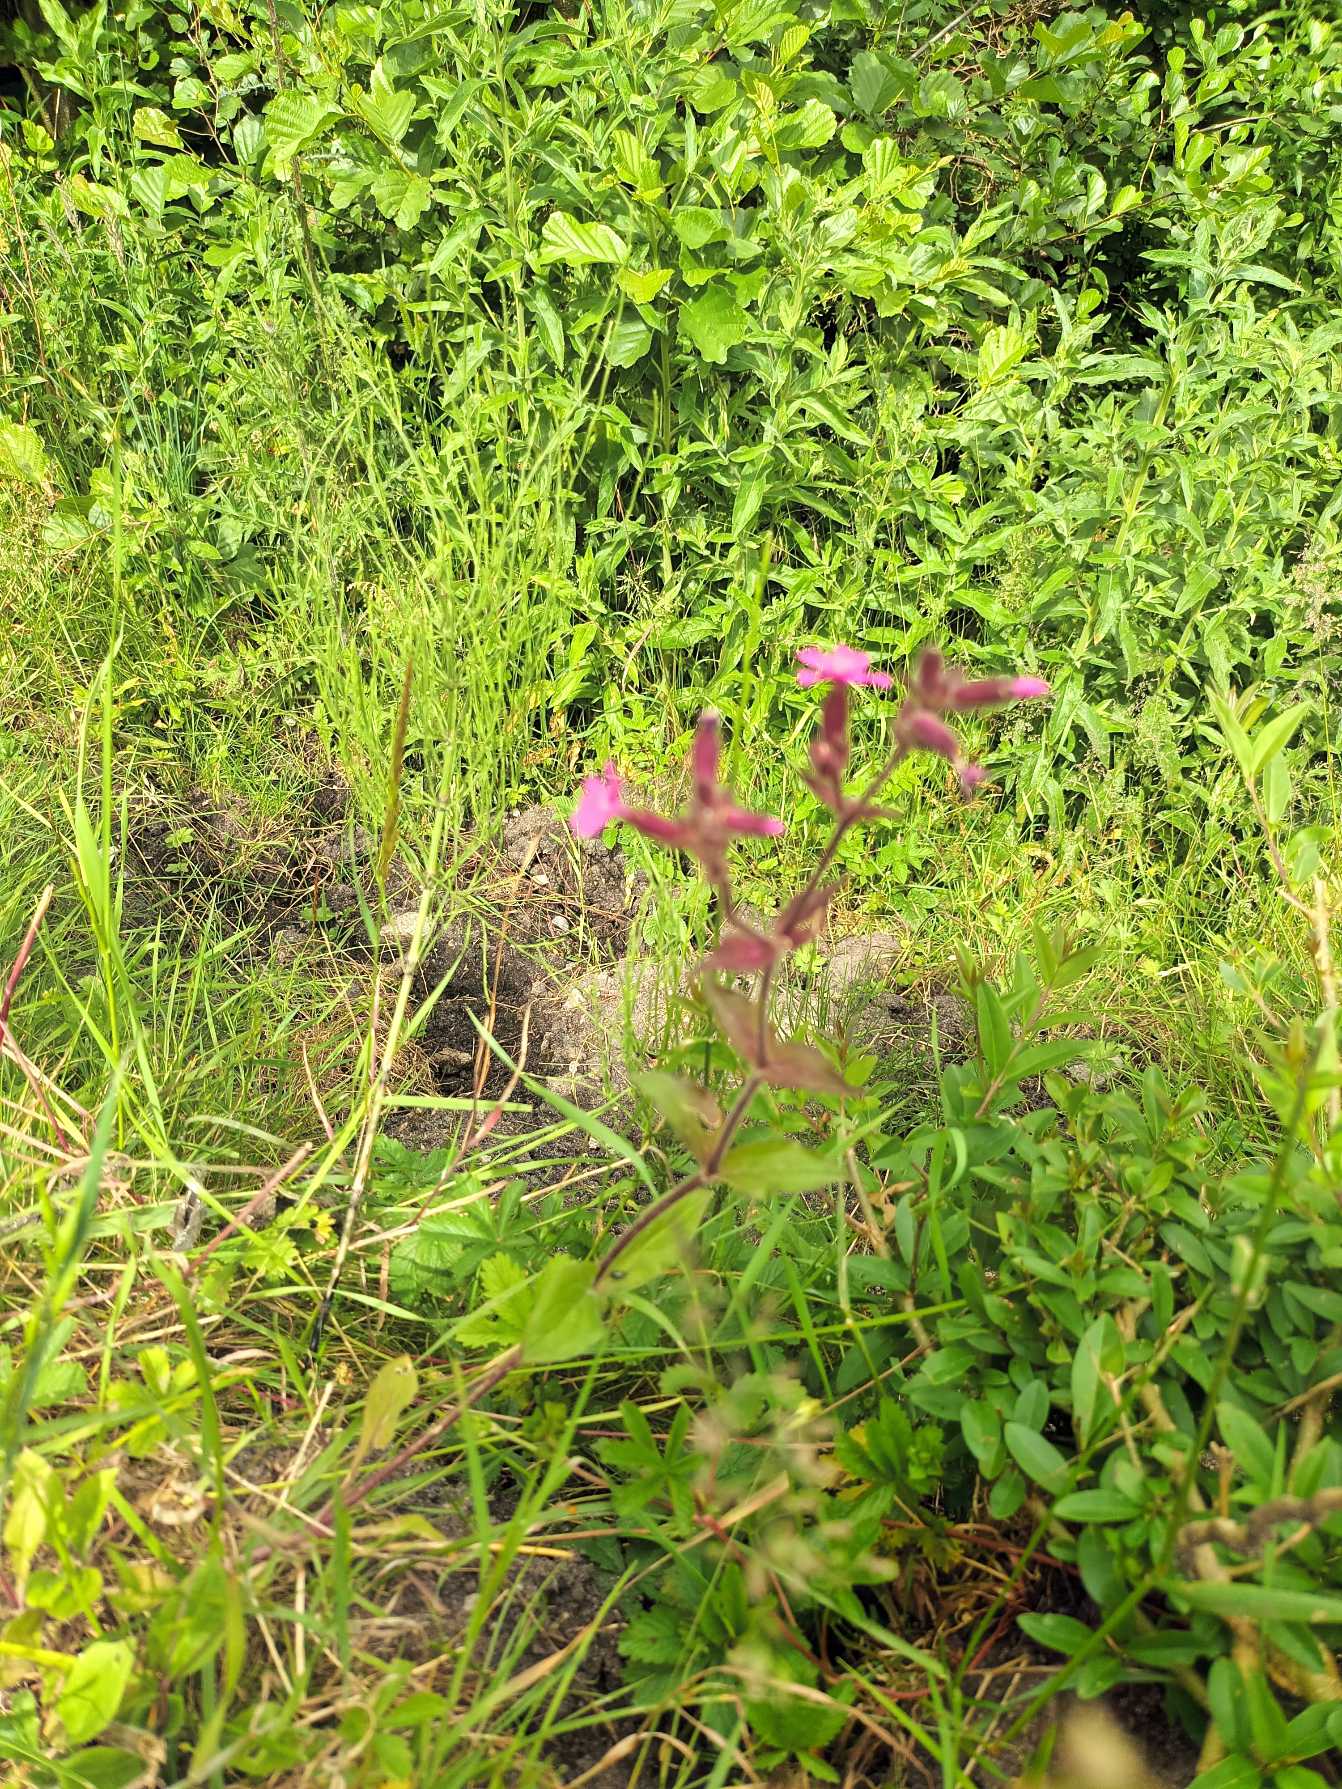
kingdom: Plantae
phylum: Tracheophyta
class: Magnoliopsida
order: Caryophyllales
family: Caryophyllaceae
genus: Silene
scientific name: Silene dioica
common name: Dagpragtstjerne
